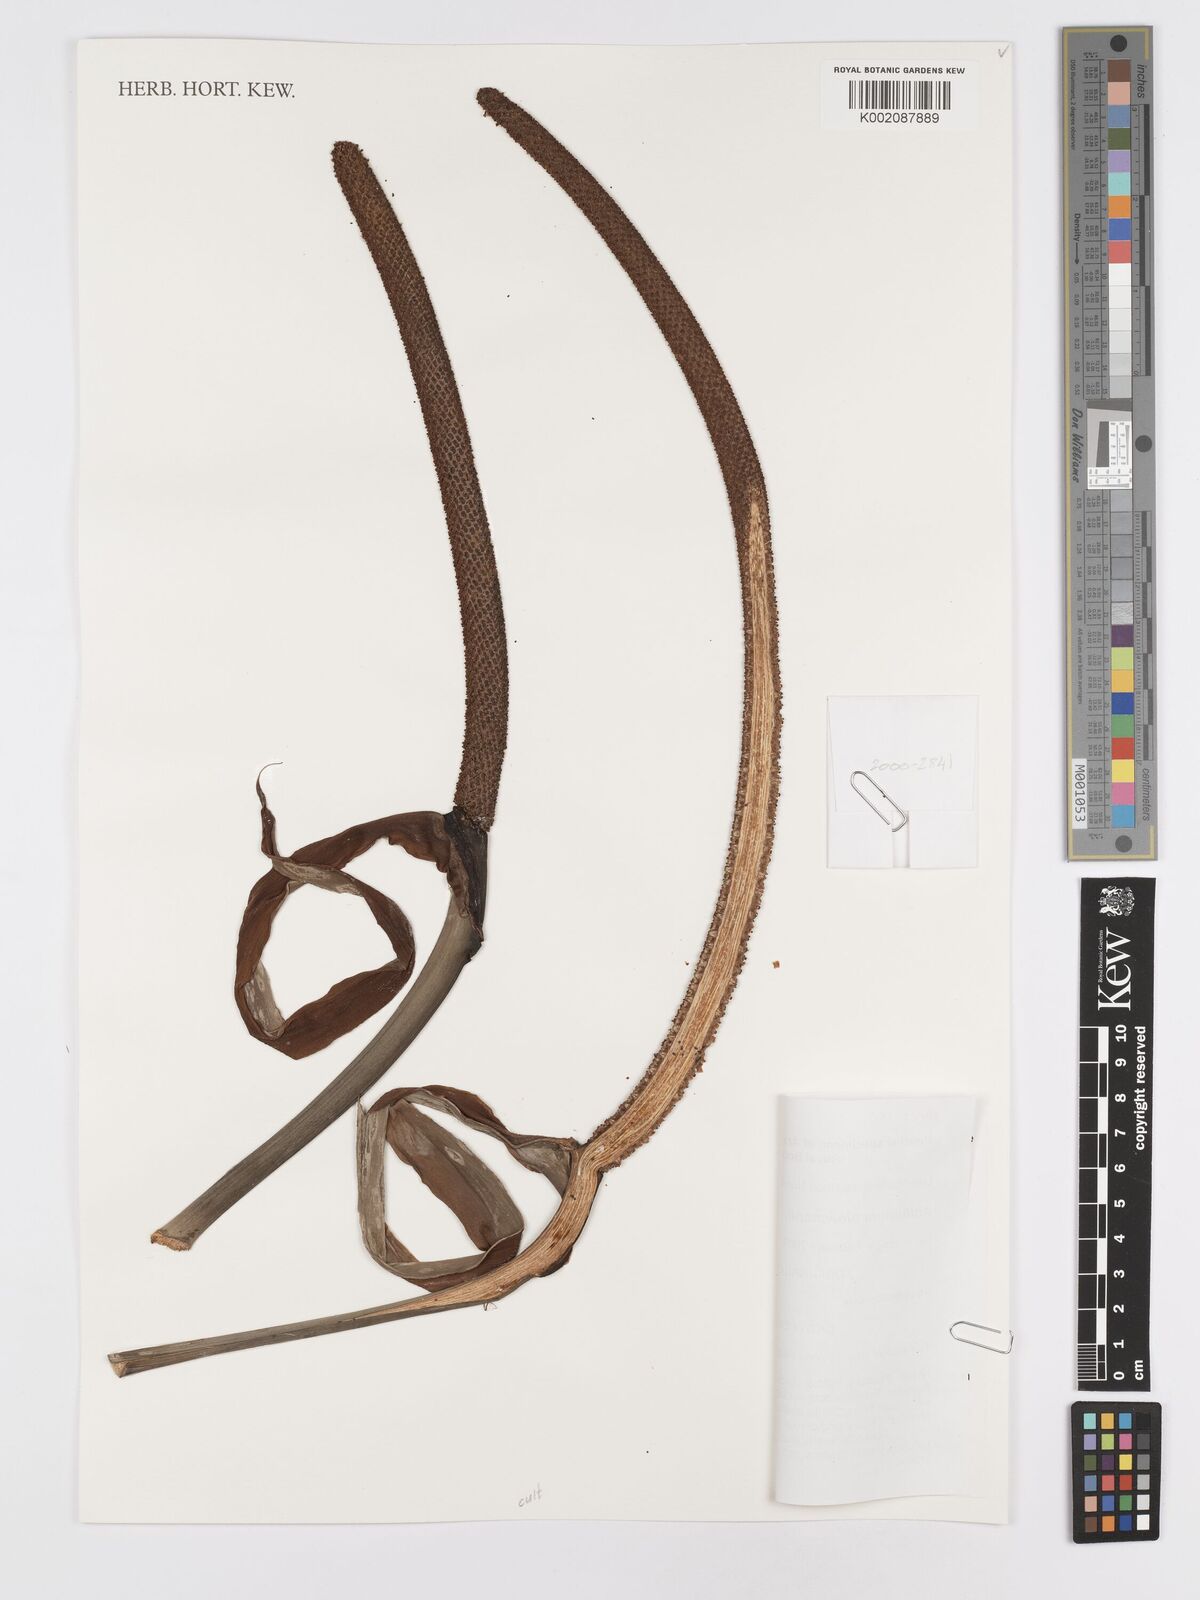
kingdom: Plantae
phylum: Tracheophyta
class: Liliopsida
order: Alismatales
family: Araceae
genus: Anthurium
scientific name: Anthurium plowmanii
